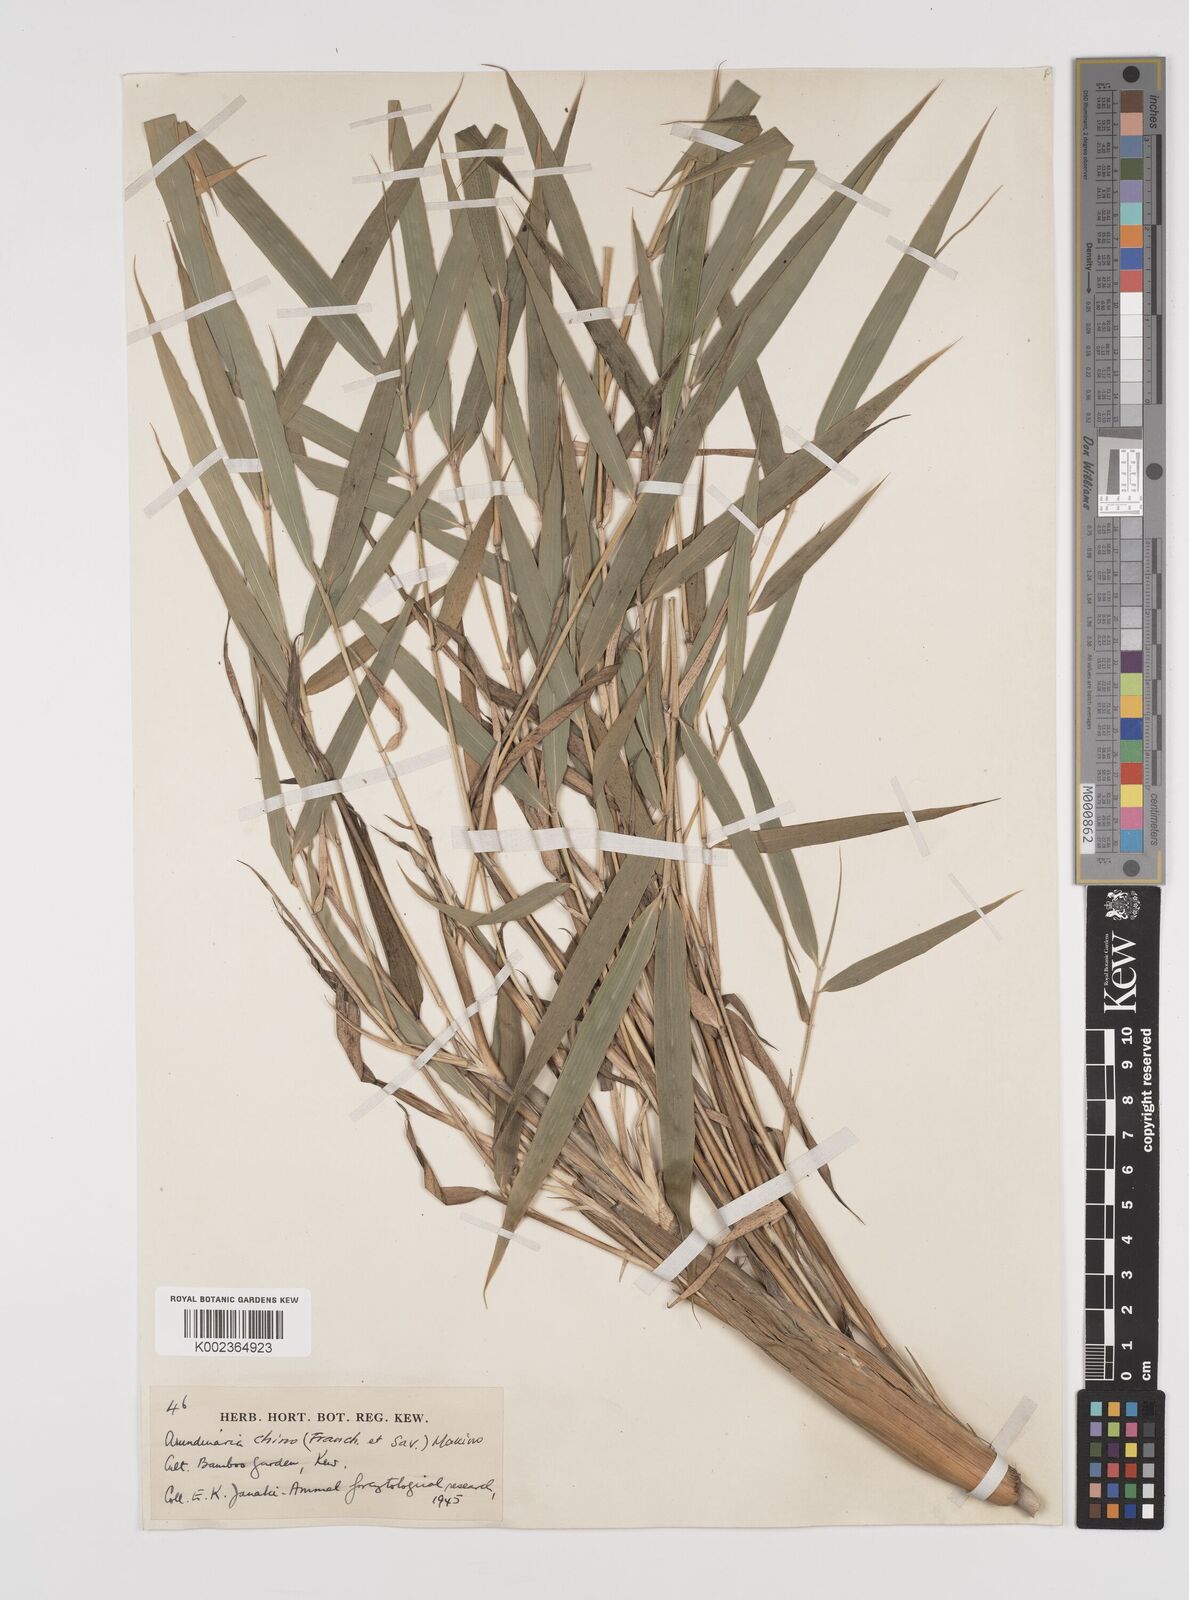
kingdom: Plantae
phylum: Tracheophyta
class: Liliopsida
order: Poales
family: Poaceae
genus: Pleioblastus
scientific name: Pleioblastus argenteostriatus
